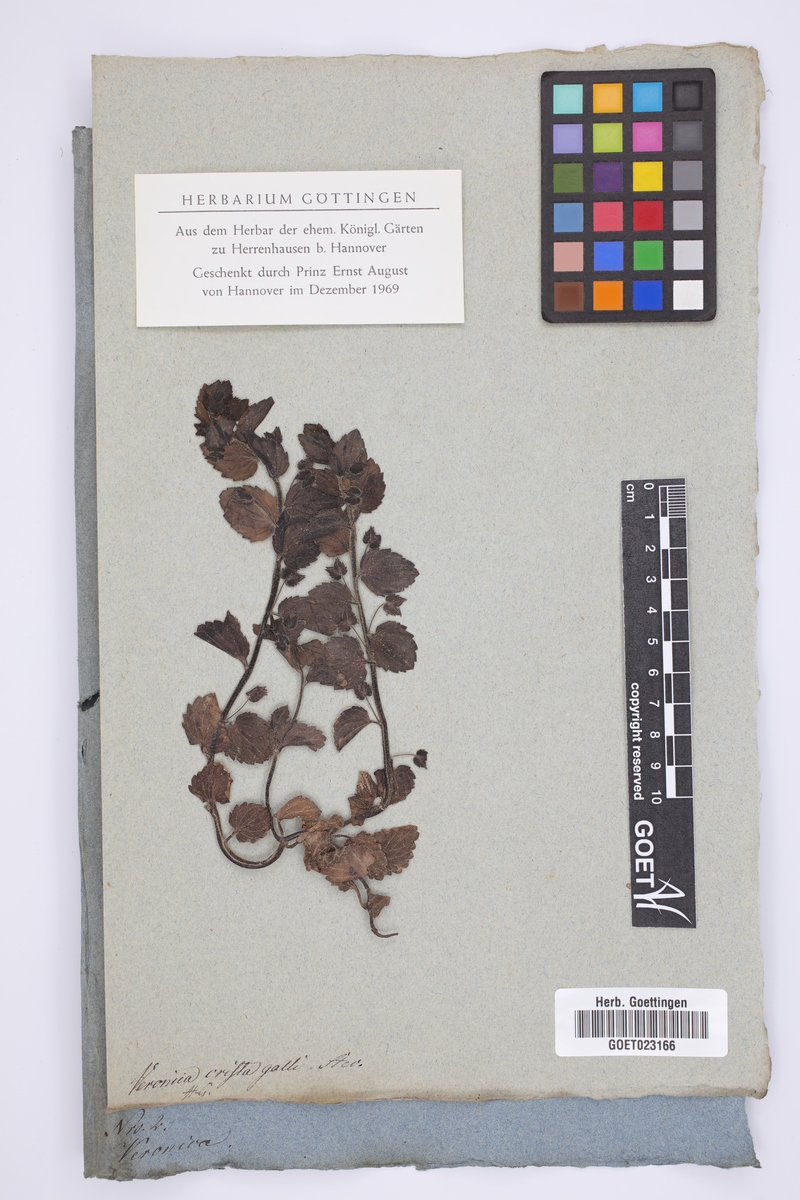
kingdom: Plantae
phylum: Tracheophyta
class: Magnoliopsida
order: Lamiales
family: Plantaginaceae
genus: Veronica
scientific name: Veronica crista-galli
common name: Crested field-speedwell
